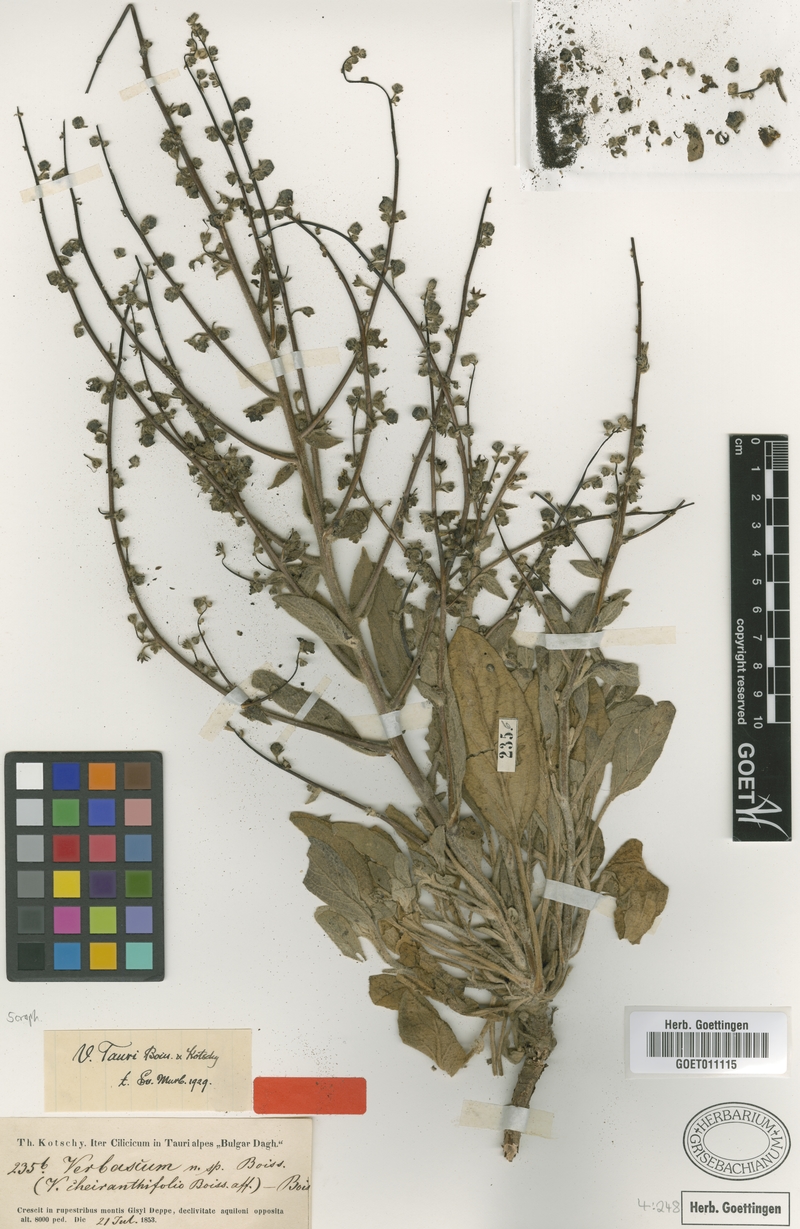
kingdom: Plantae
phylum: Tracheophyta
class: Magnoliopsida
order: Lamiales
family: Scrophulariaceae
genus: Verbascum
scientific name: Verbascum tauri
